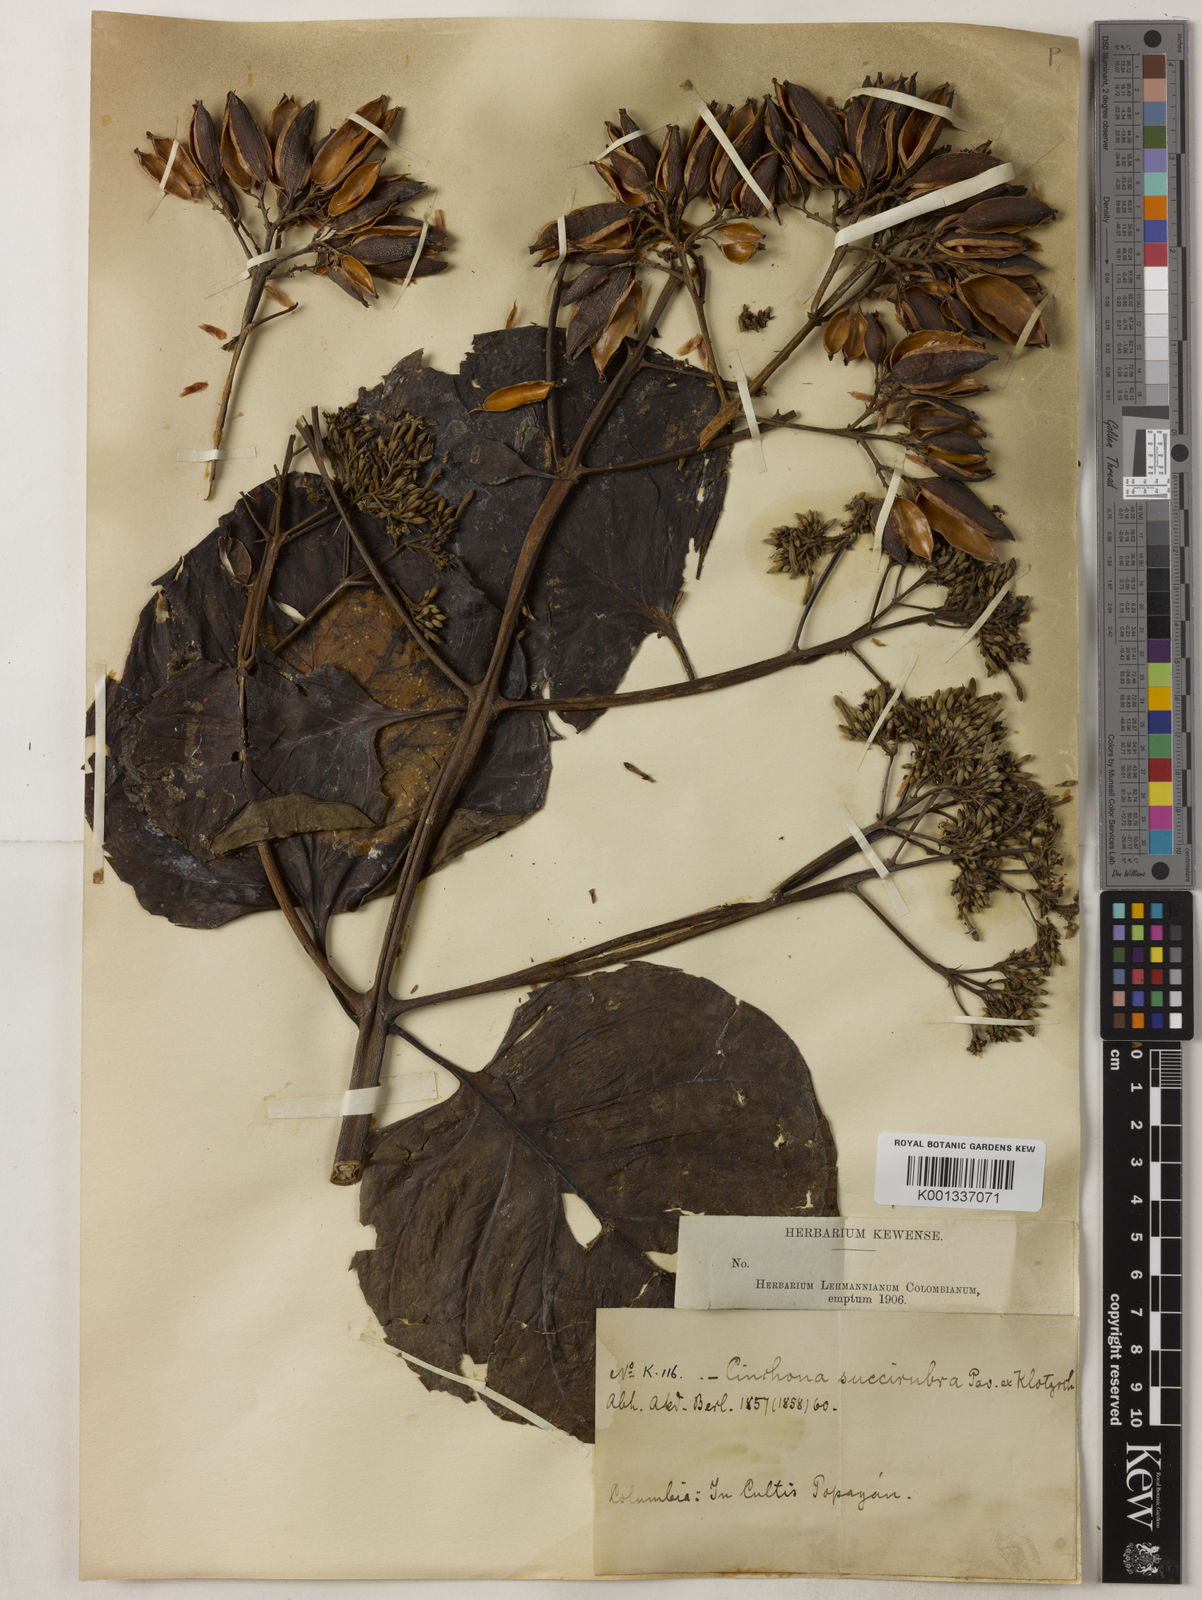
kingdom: Plantae
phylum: Tracheophyta
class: Magnoliopsida
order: Gentianales
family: Rubiaceae
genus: Cinchona
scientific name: Cinchona pubescens
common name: Quinine
